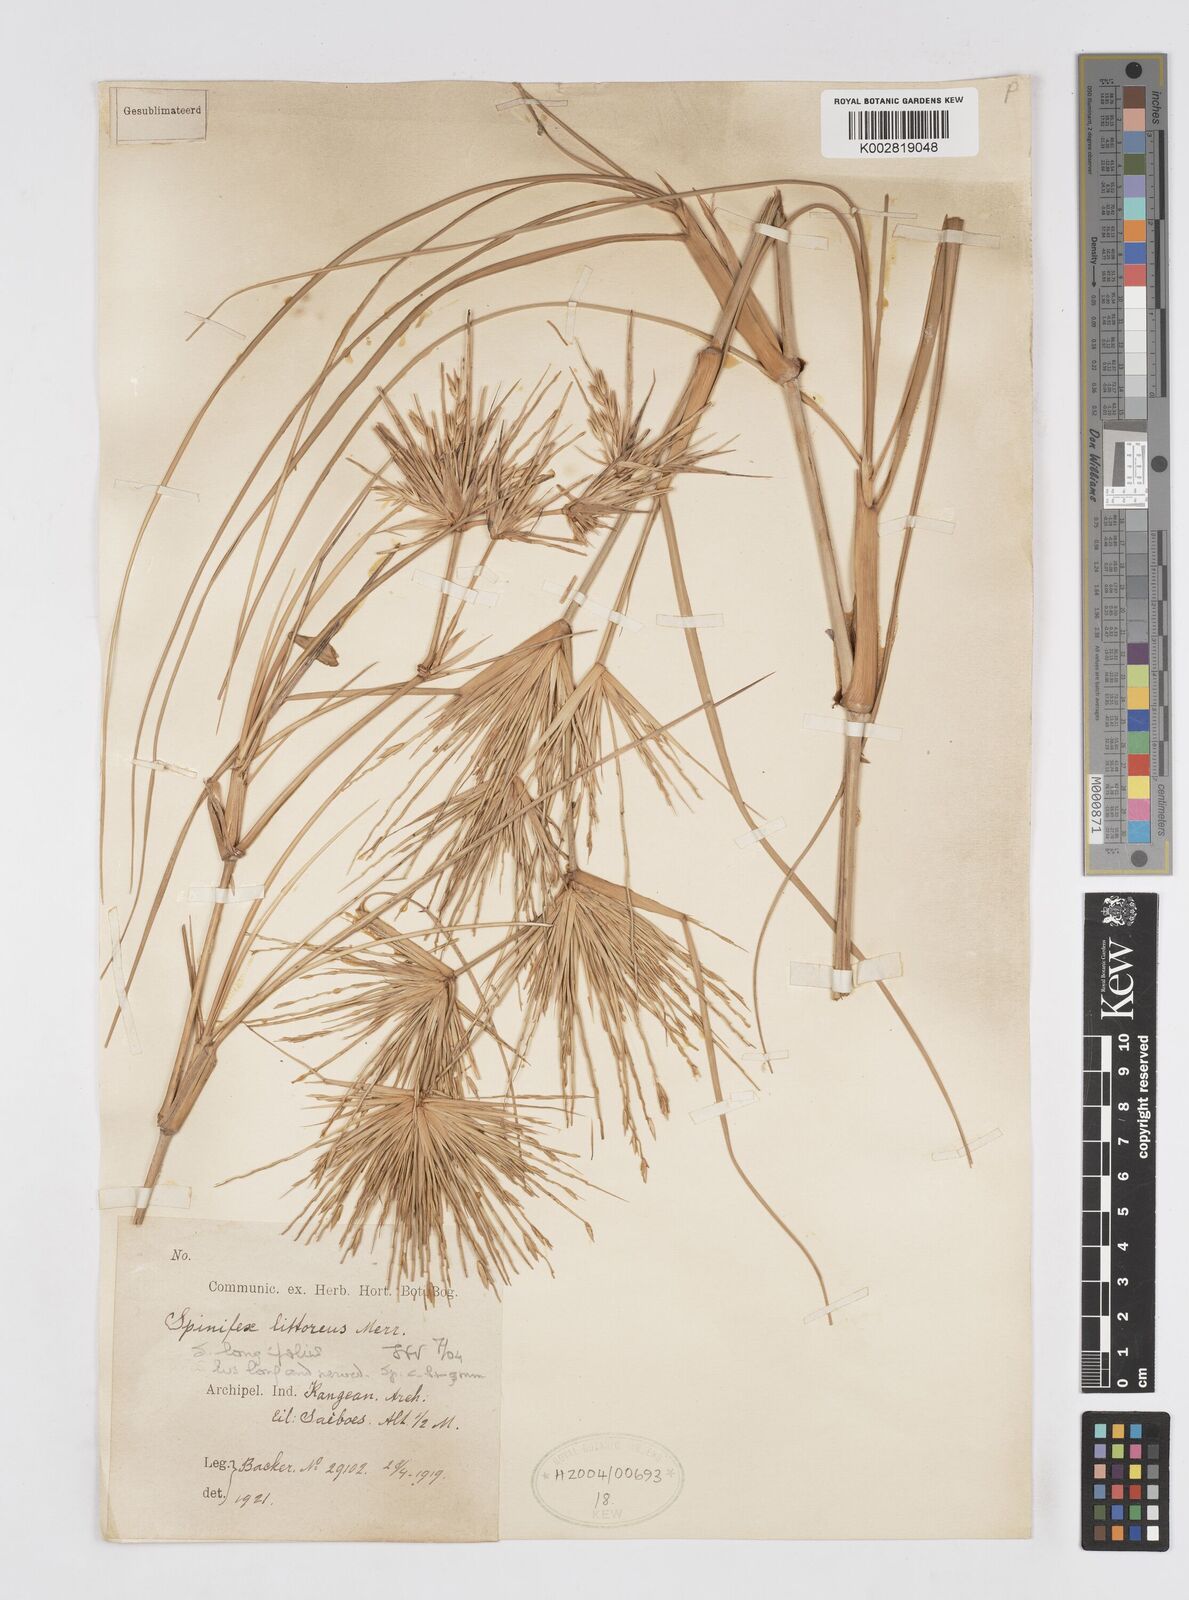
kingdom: Plantae
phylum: Tracheophyta
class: Liliopsida
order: Poales
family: Poaceae
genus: Spinifex
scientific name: Spinifex littoreus
